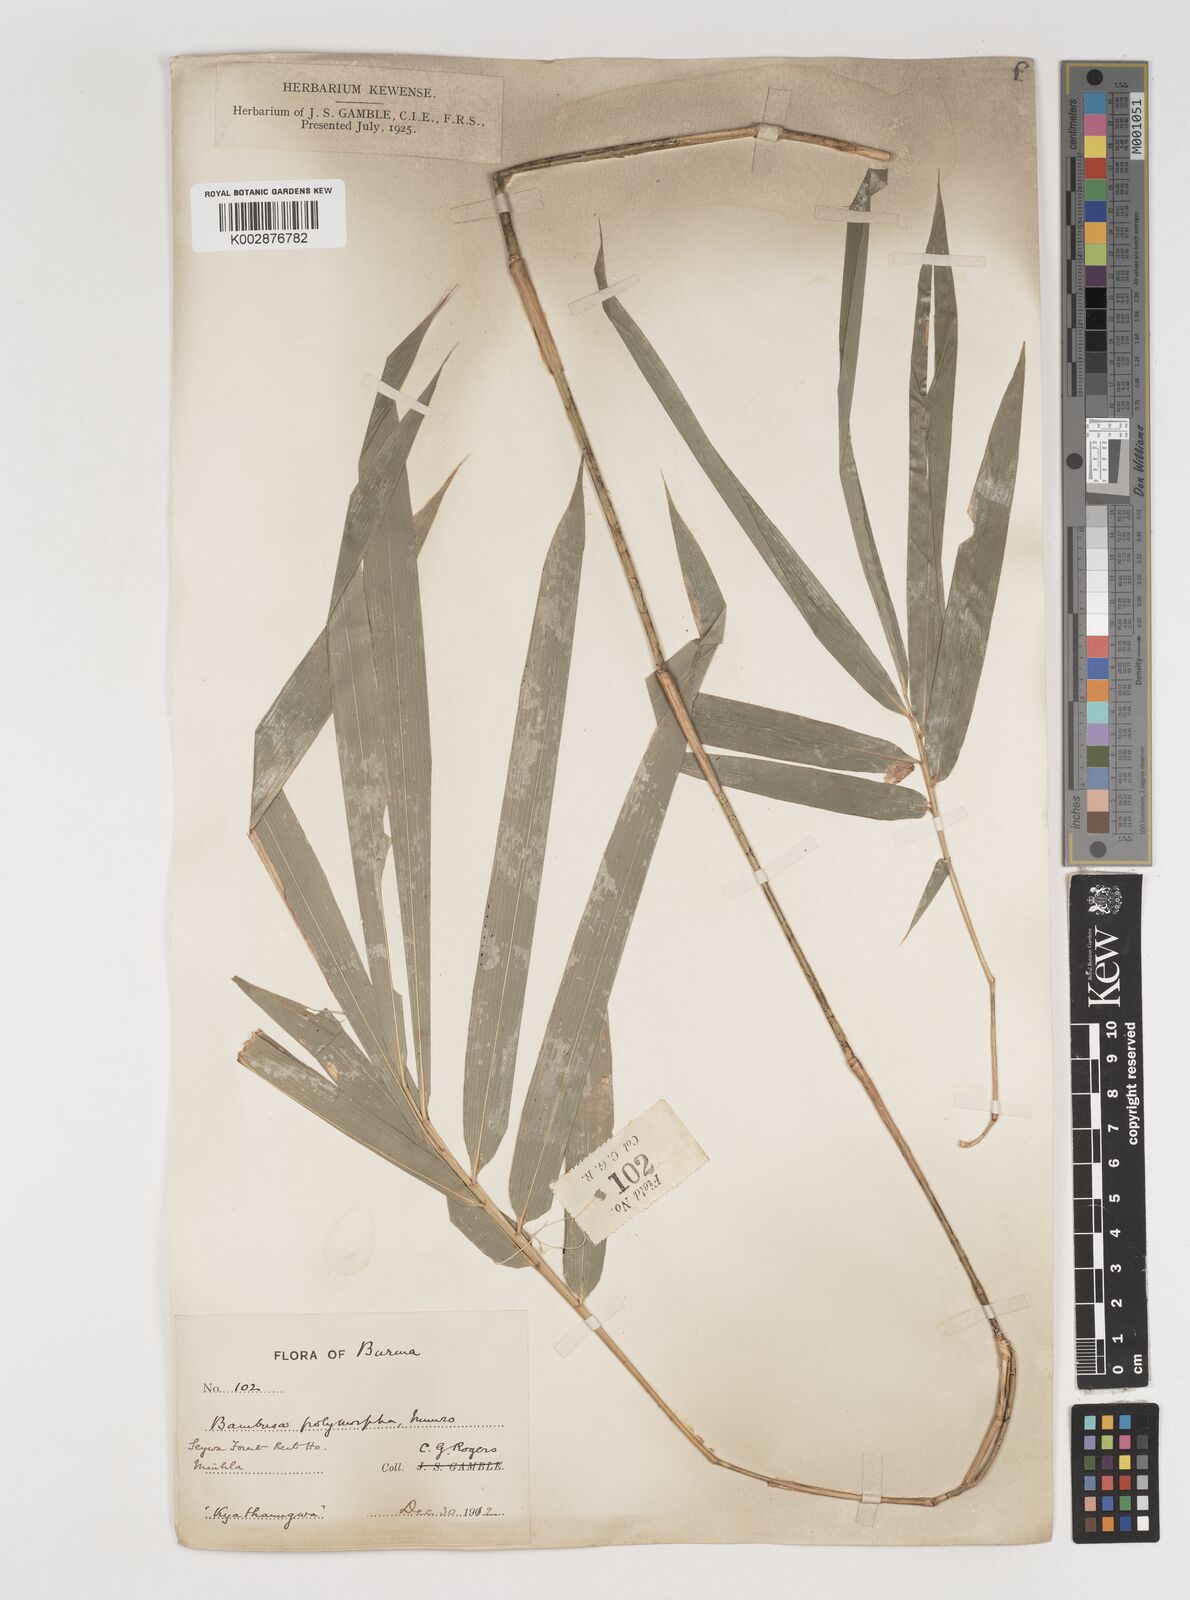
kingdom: Plantae
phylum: Tracheophyta
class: Liliopsida
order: Poales
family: Poaceae
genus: Bambusa
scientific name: Bambusa polymorpha
